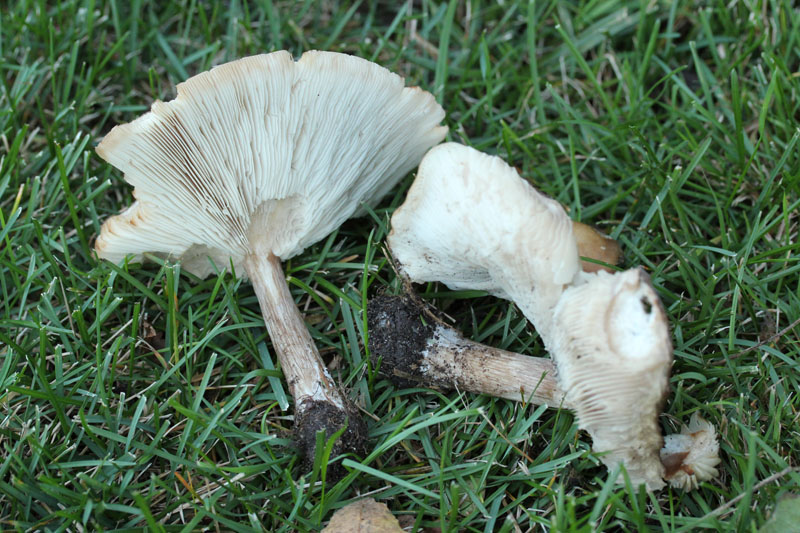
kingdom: Fungi
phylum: Basidiomycota
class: Agaricomycetes
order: Agaricales
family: Tricholomataceae
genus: Melanoleuca
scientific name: Melanoleuca grammopodia
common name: stribestokket munkehat
